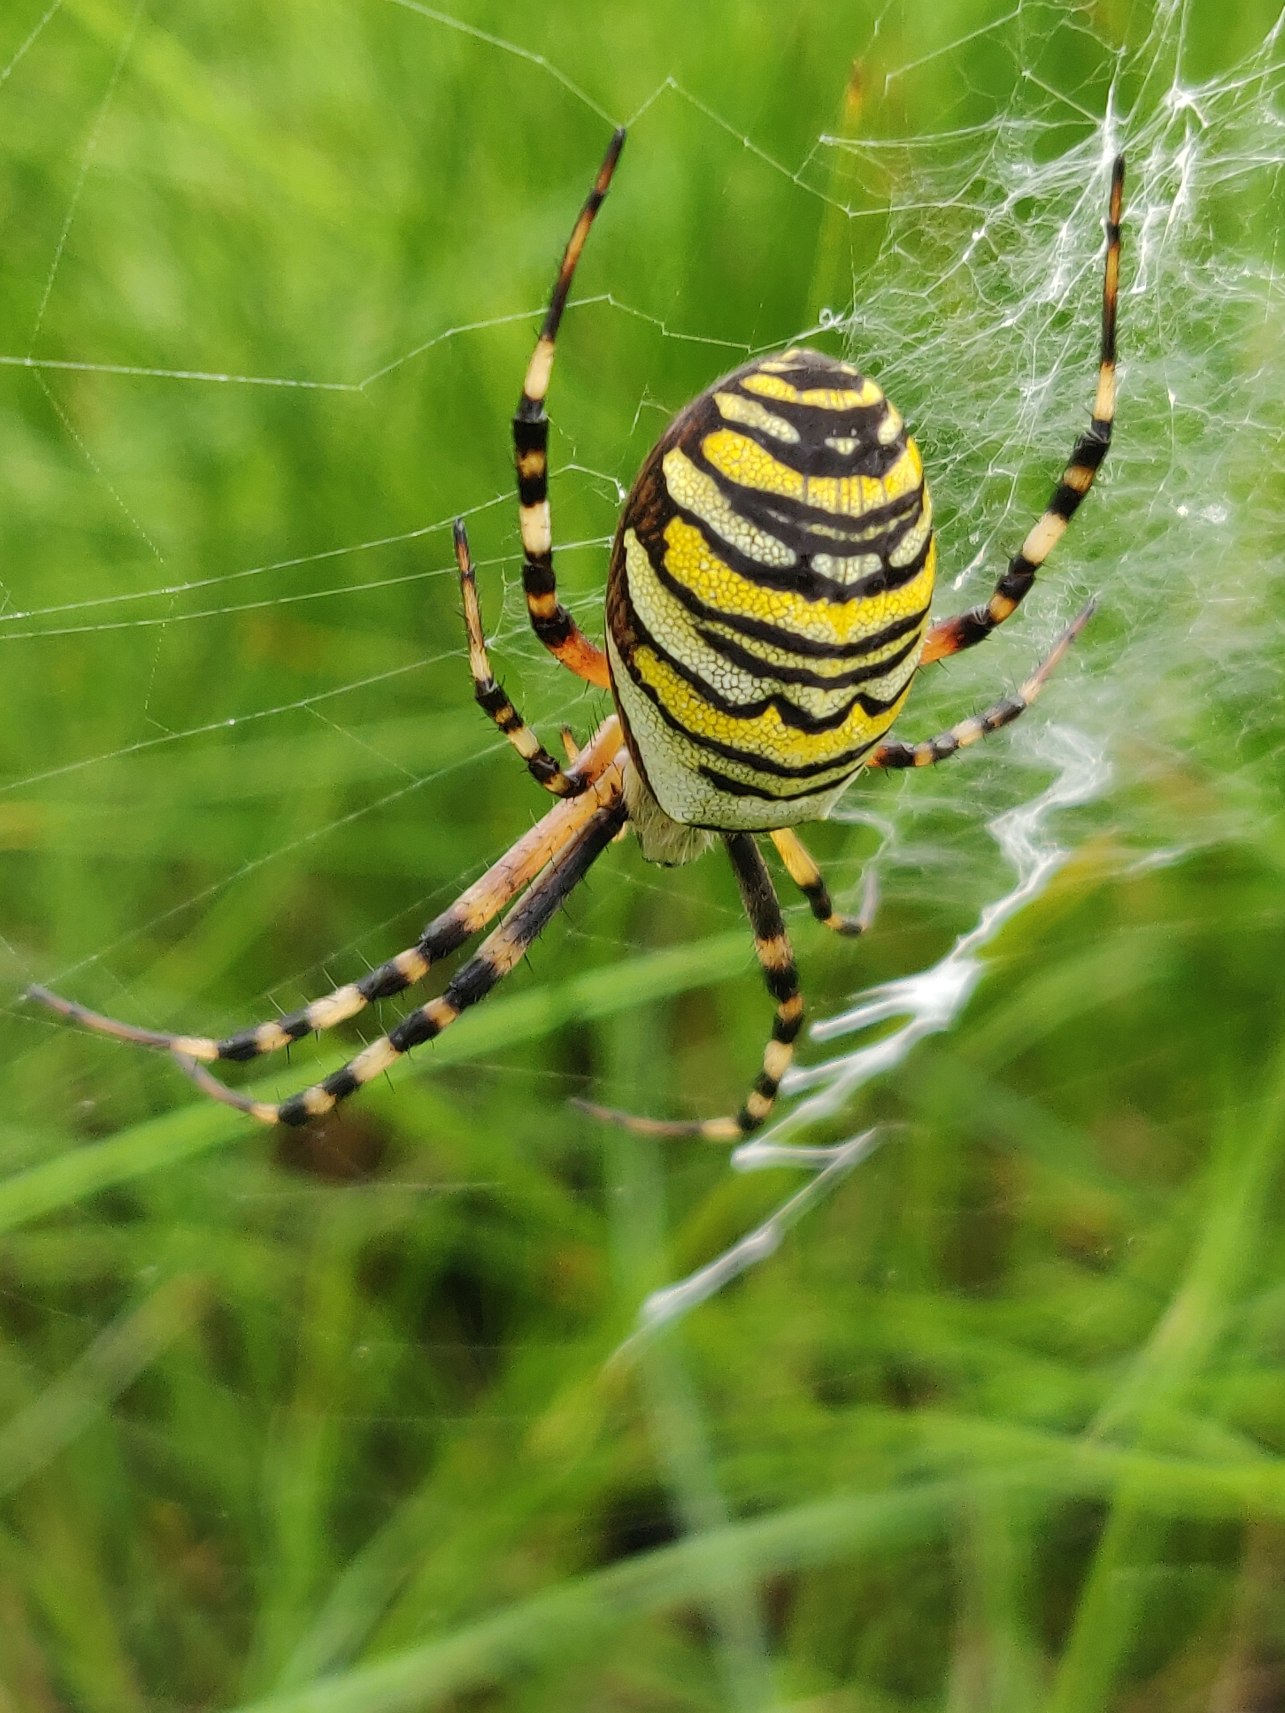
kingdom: Animalia
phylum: Arthropoda
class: Arachnida
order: Araneae
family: Araneidae
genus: Argiope
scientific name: Argiope bruennichi
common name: Hvepseedderkop
